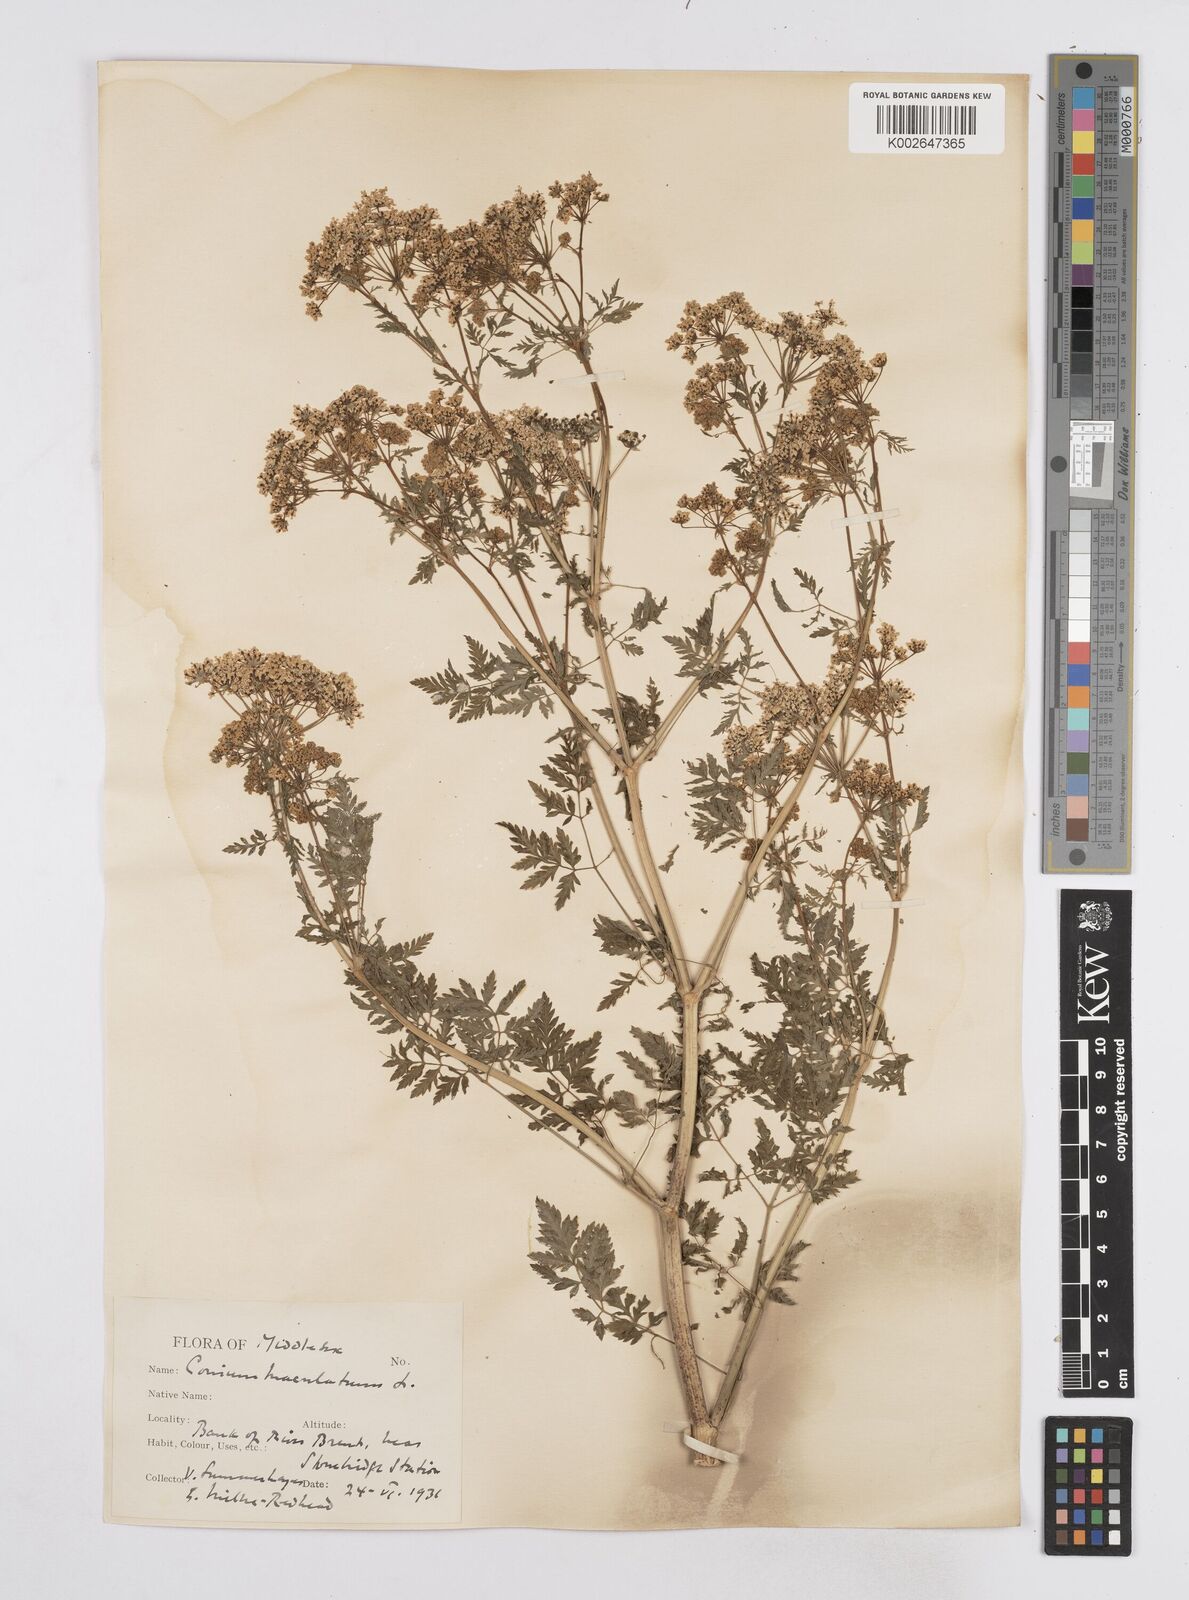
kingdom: Plantae
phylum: Tracheophyta
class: Magnoliopsida
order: Apiales
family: Apiaceae
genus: Conium
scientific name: Conium maculatum
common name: Hemlock
